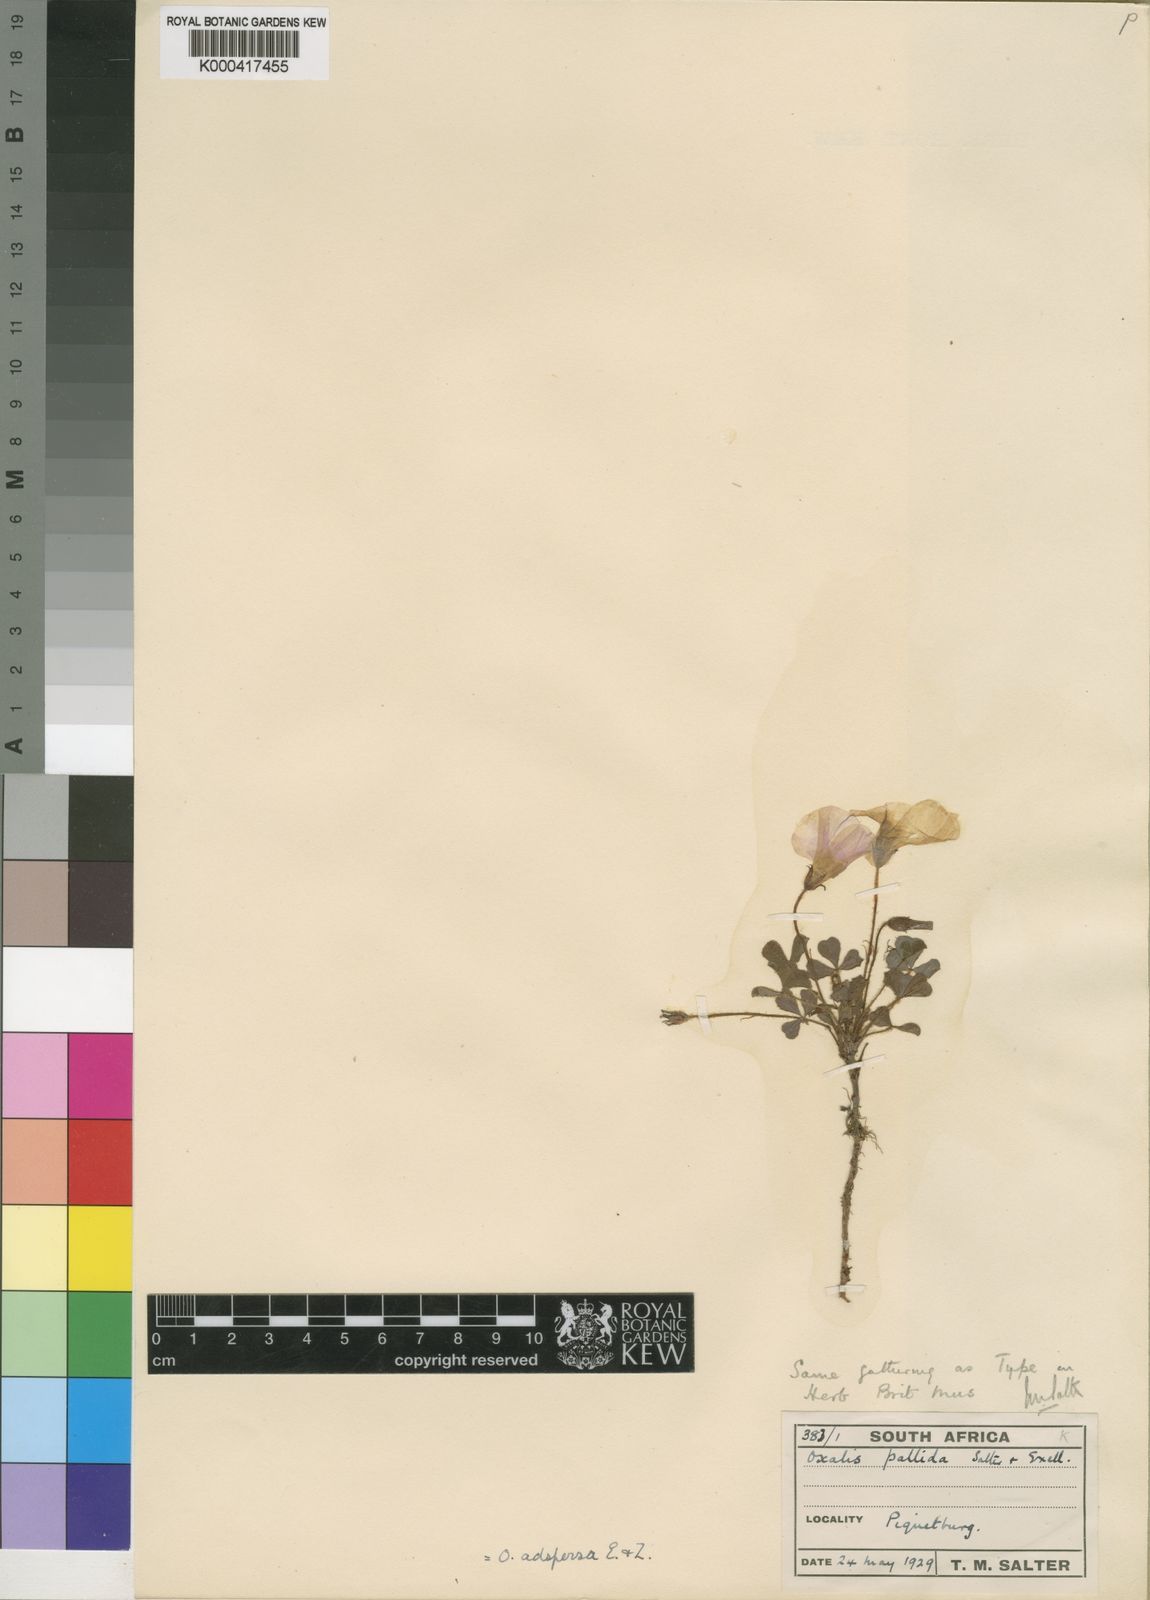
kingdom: Plantae
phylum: Tracheophyta
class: Magnoliopsida
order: Oxalidales
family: Oxalidaceae
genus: Oxalis
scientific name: Oxalis adspersa
